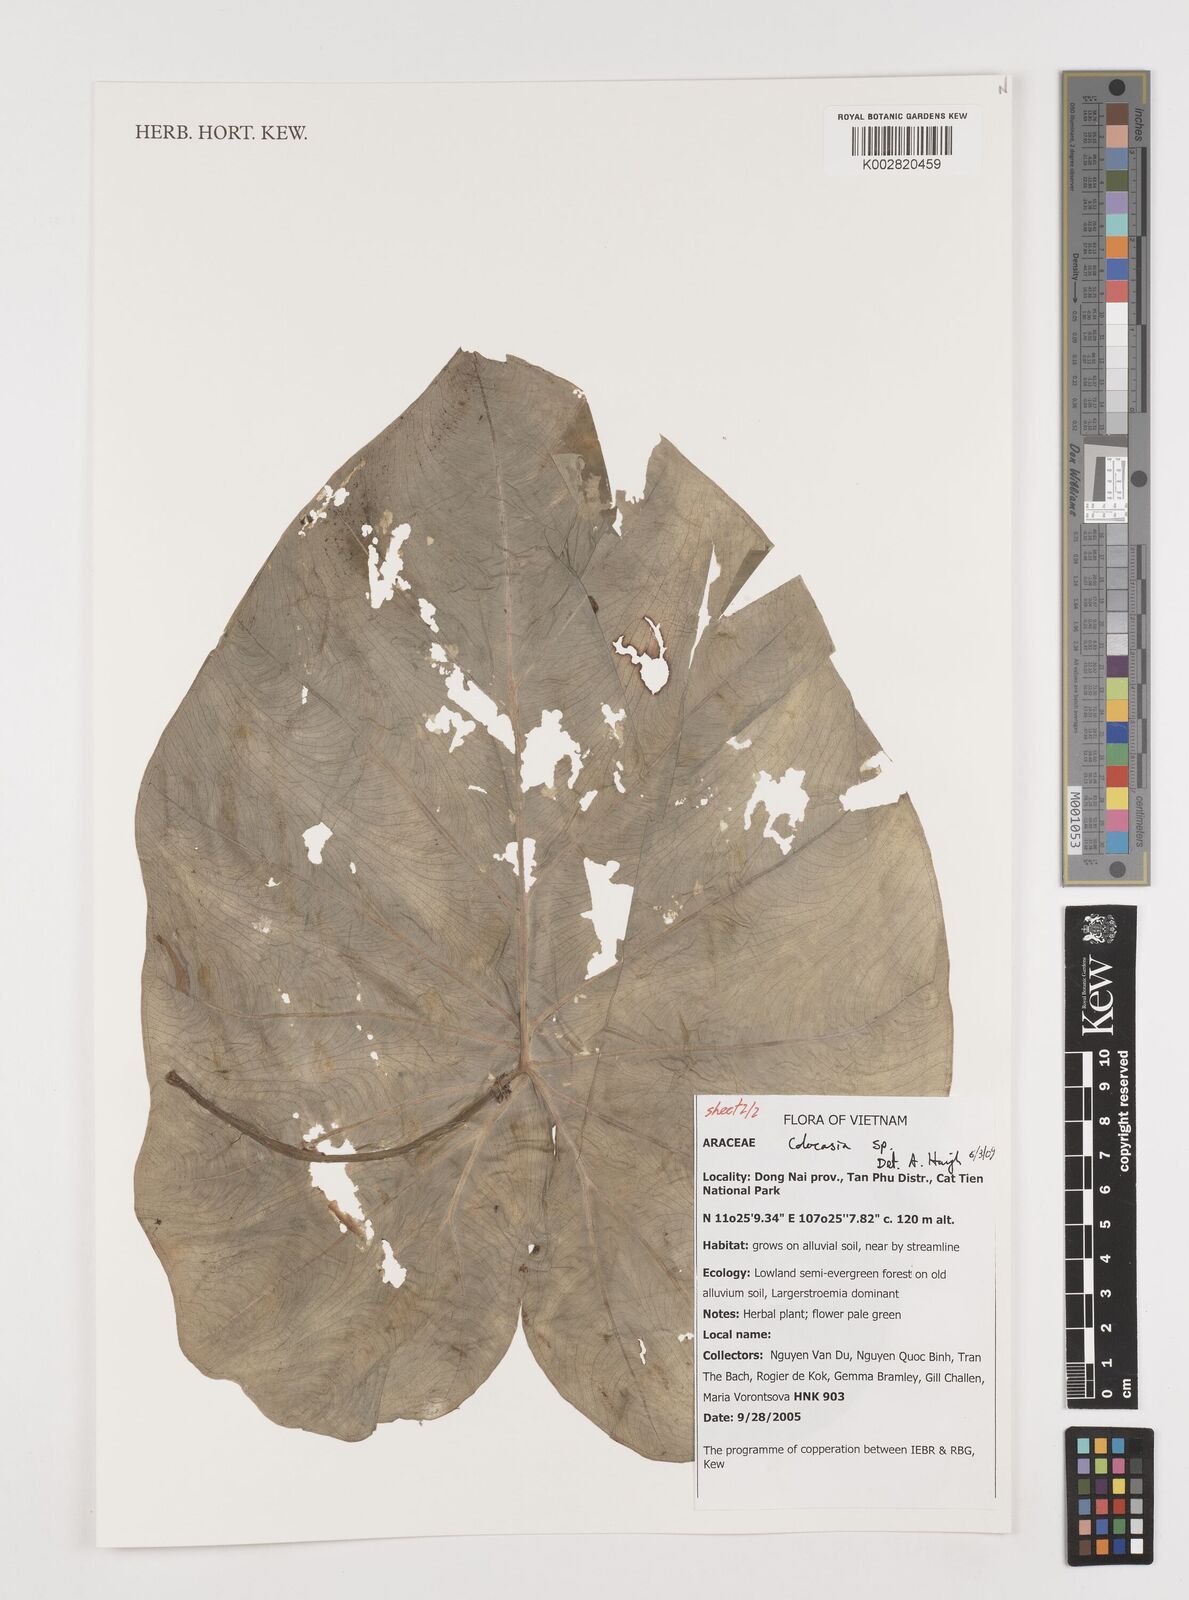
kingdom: Plantae
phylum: Tracheophyta
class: Liliopsida
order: Alismatales
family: Araceae
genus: Colocasia
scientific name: Colocasia
